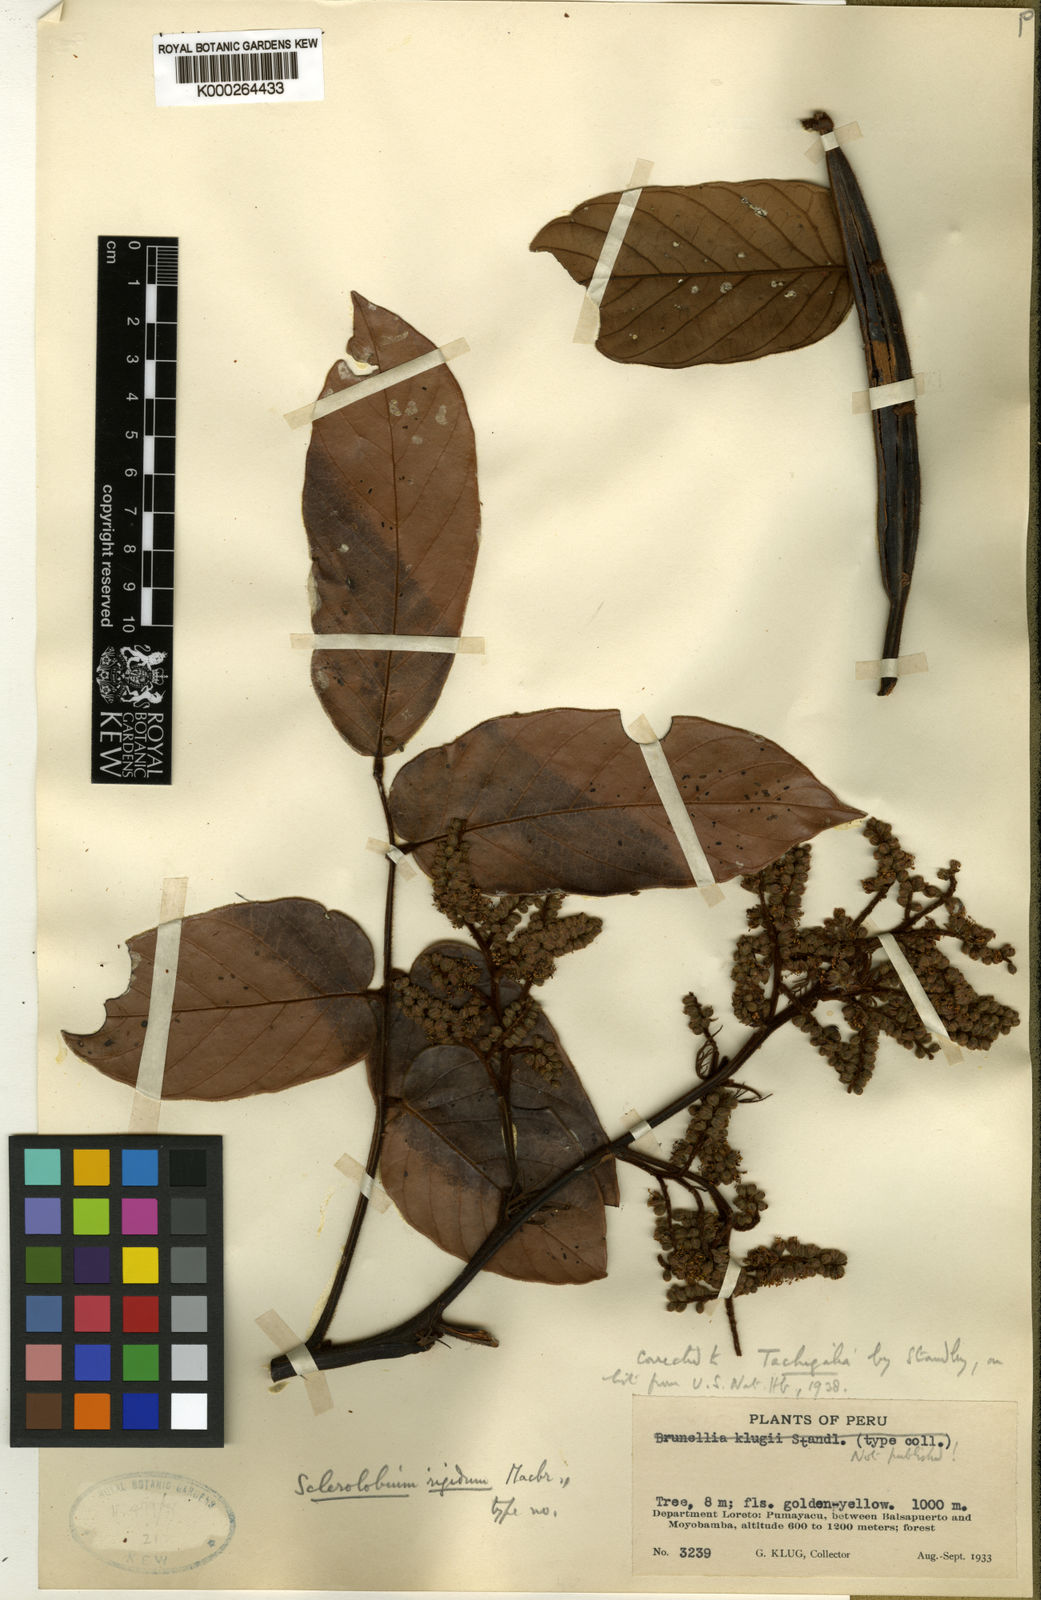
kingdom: Plantae
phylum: Tracheophyta
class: Magnoliopsida
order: Fabales
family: Fabaceae
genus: Tachigali
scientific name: Tachigali macbridei
